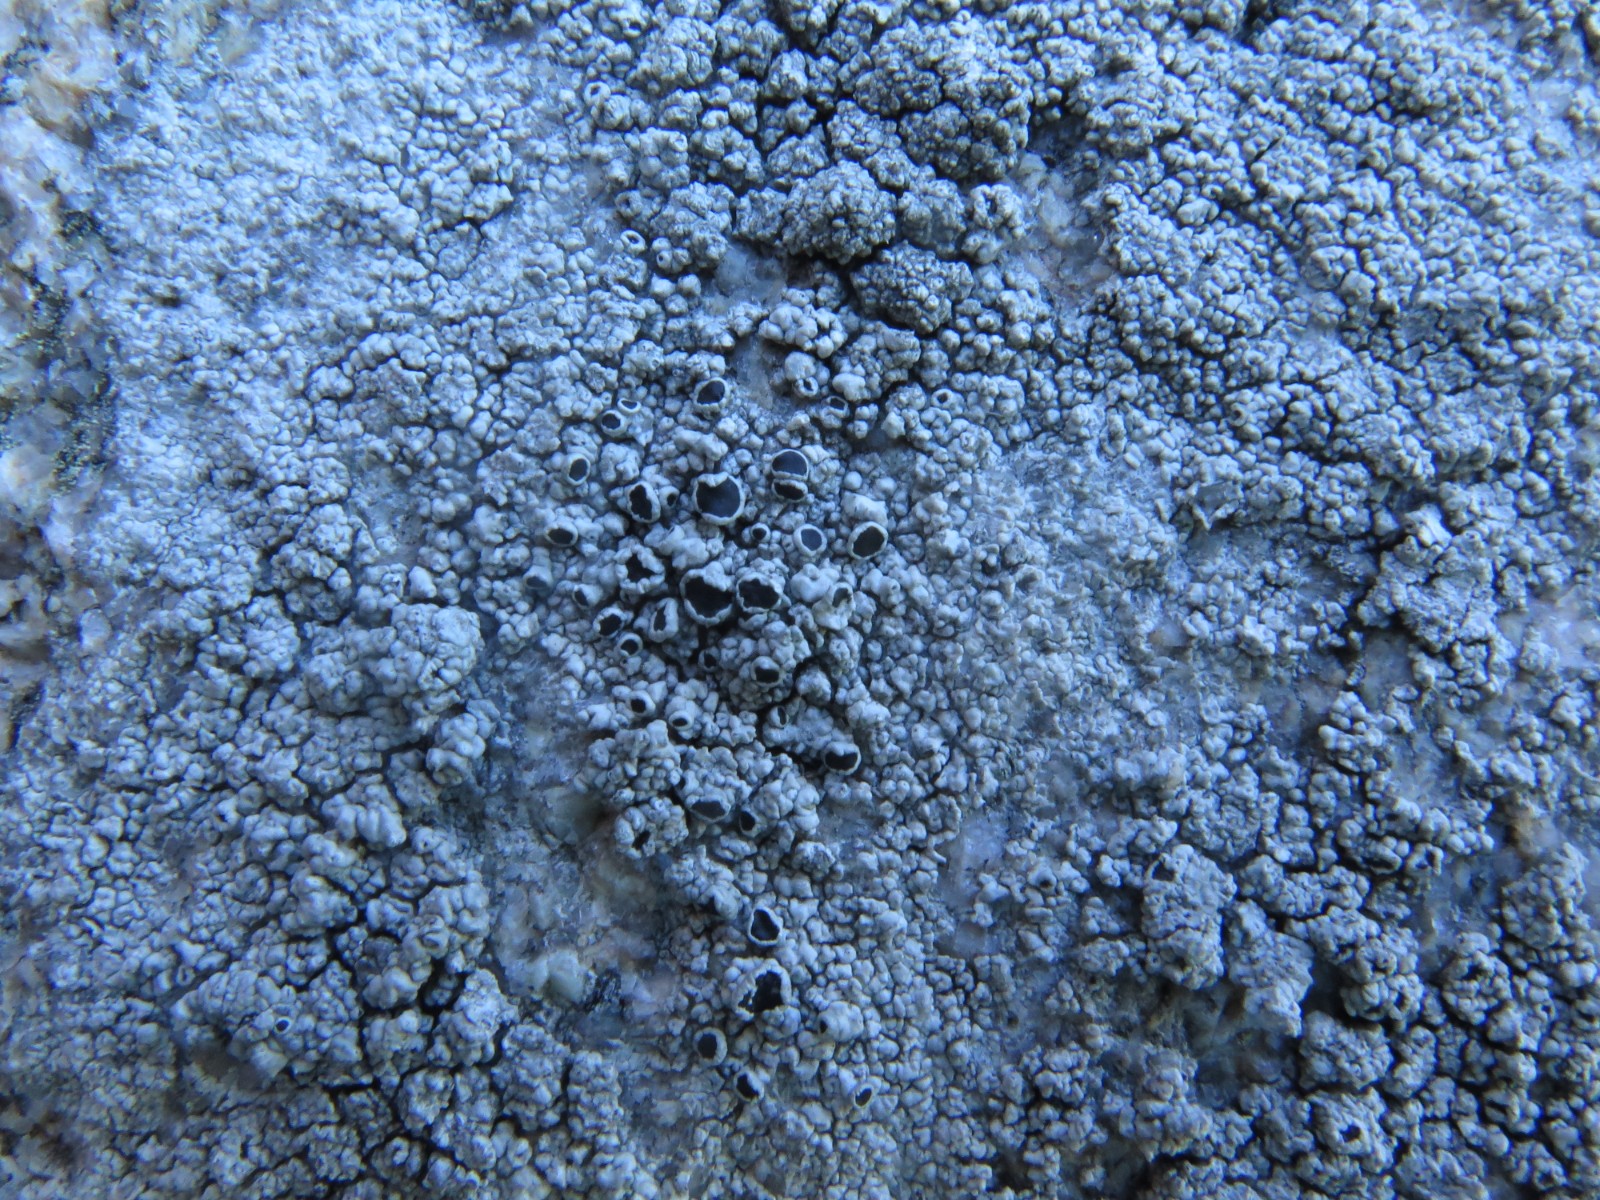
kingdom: Fungi
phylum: Ascomycota
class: Lecanoromycetes
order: Lecanorales
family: Tephromelataceae
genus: Tephromela
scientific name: Tephromela atra
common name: sortfrugtet kantskivelav
